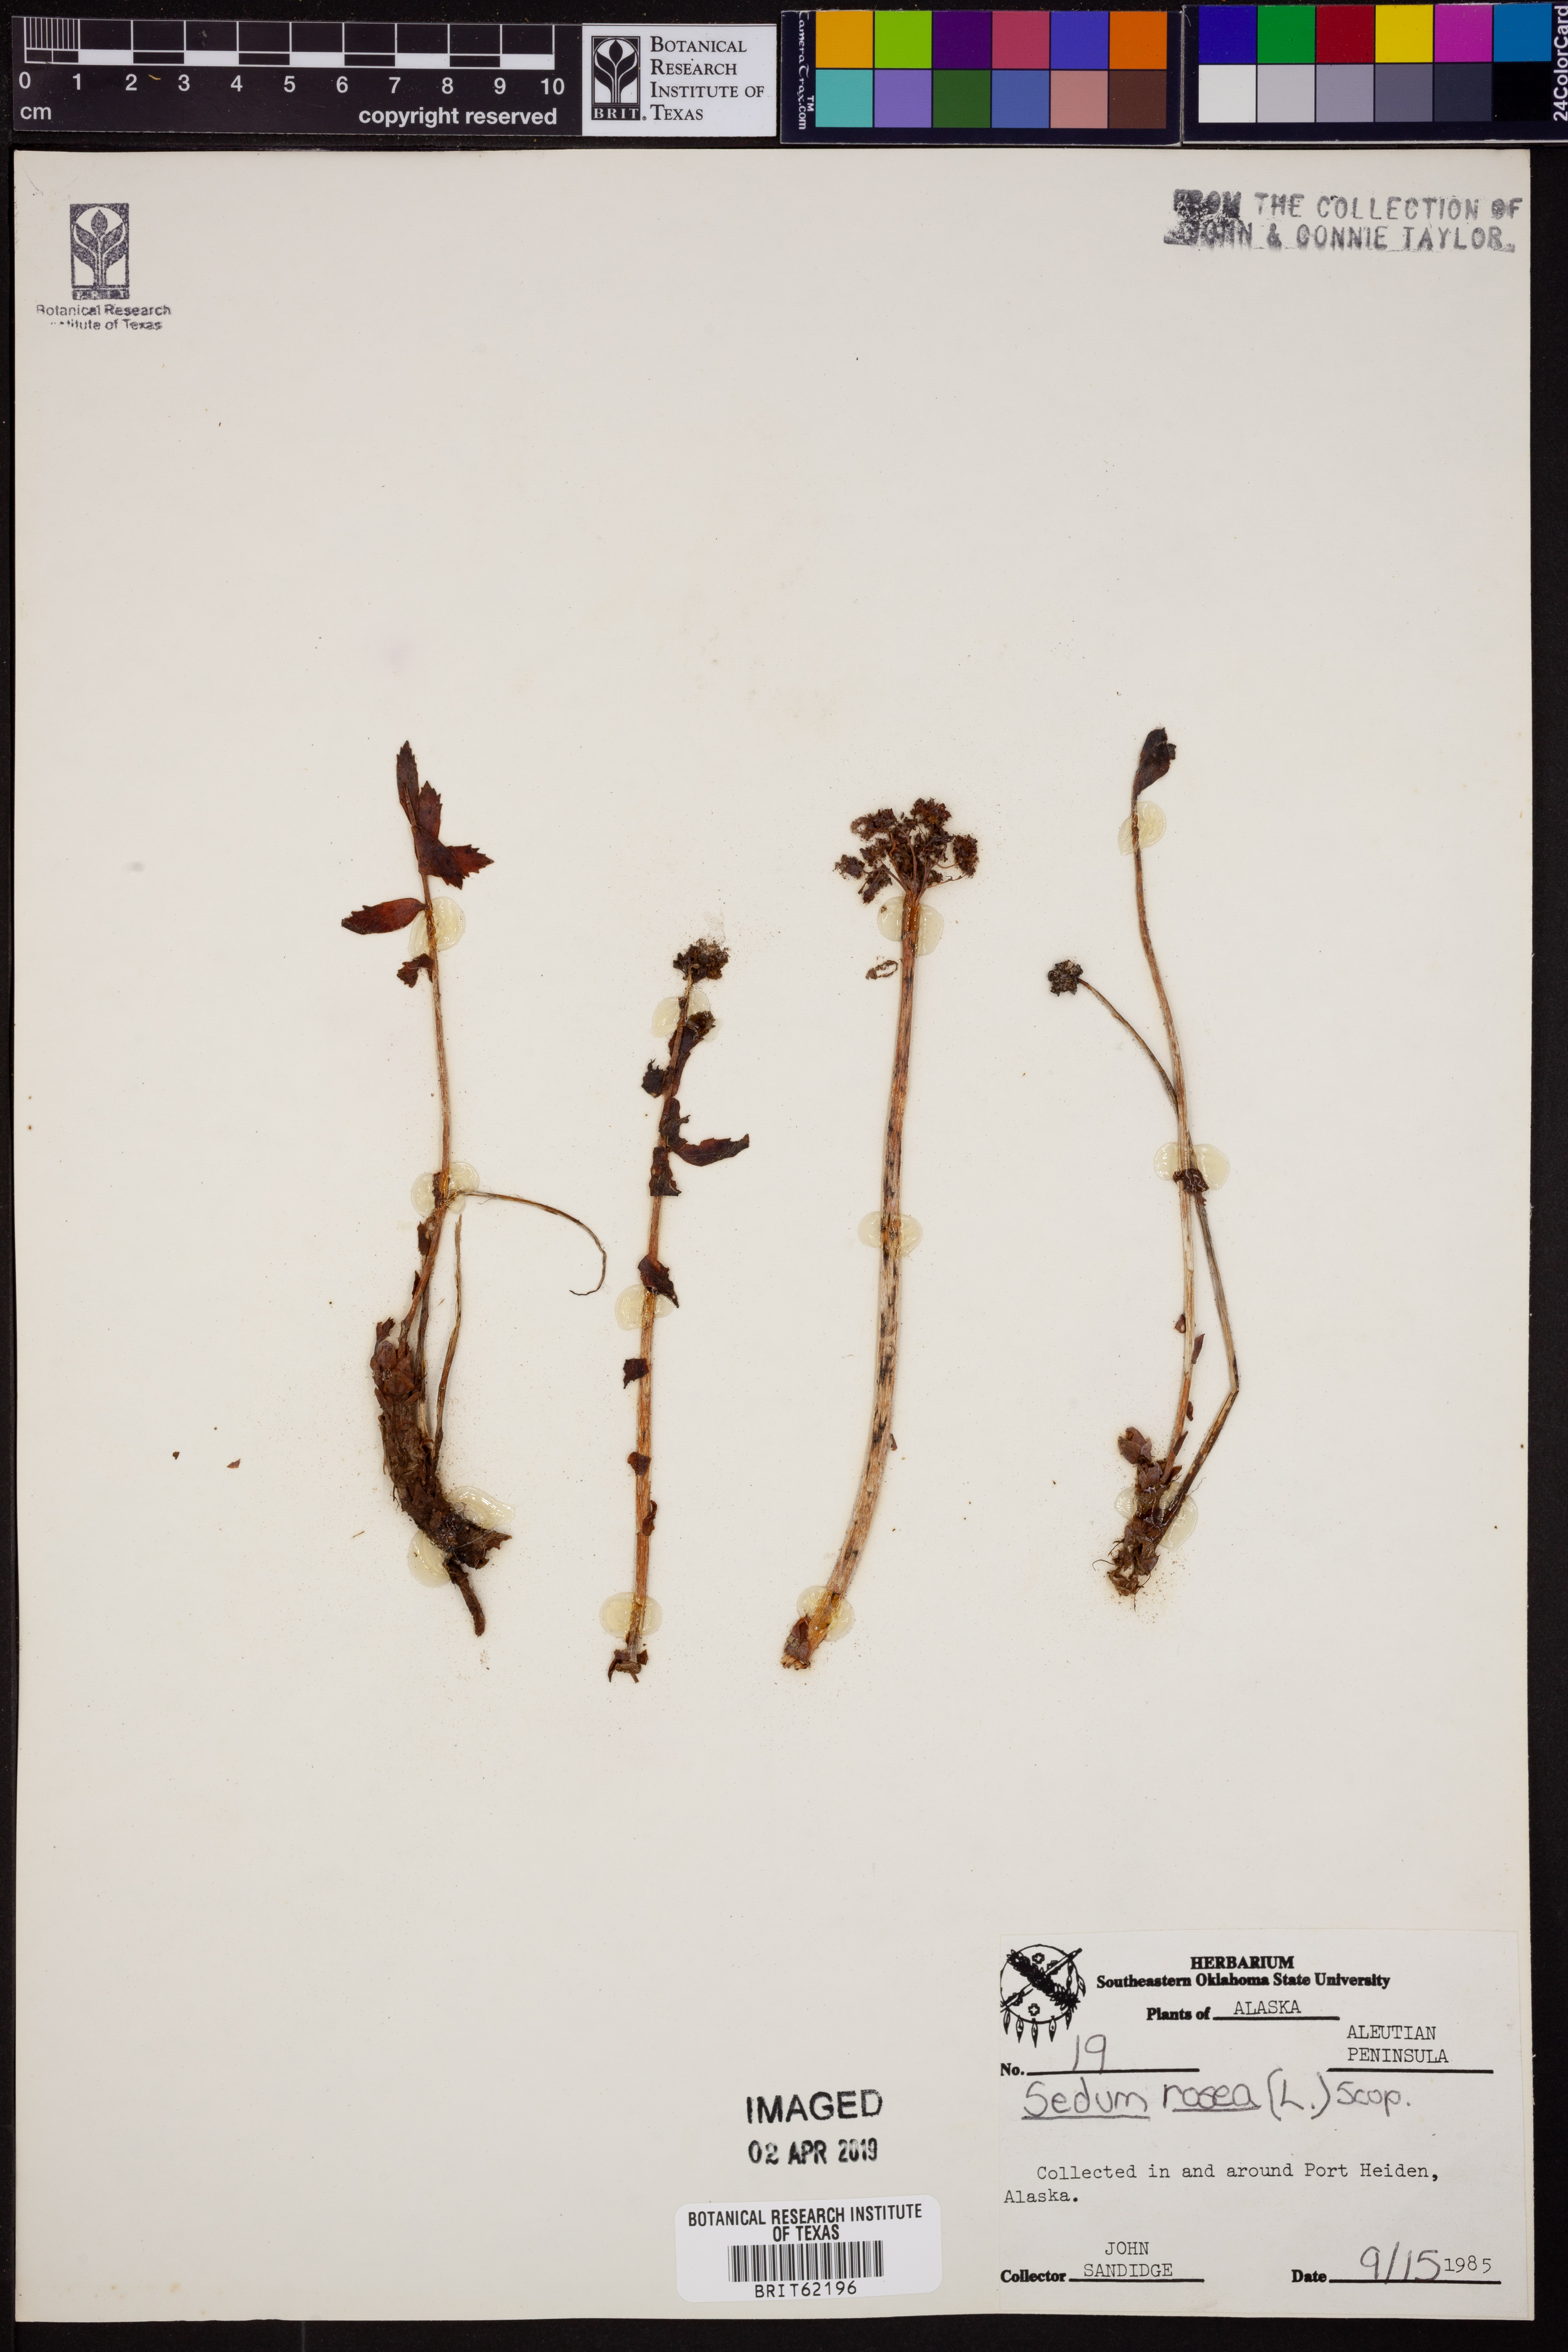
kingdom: Plantae
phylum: Tracheophyta
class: Magnoliopsida
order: Saxifragales
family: Crassulaceae
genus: Rhodiola
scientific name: Rhodiola rosea
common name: Roseroot
